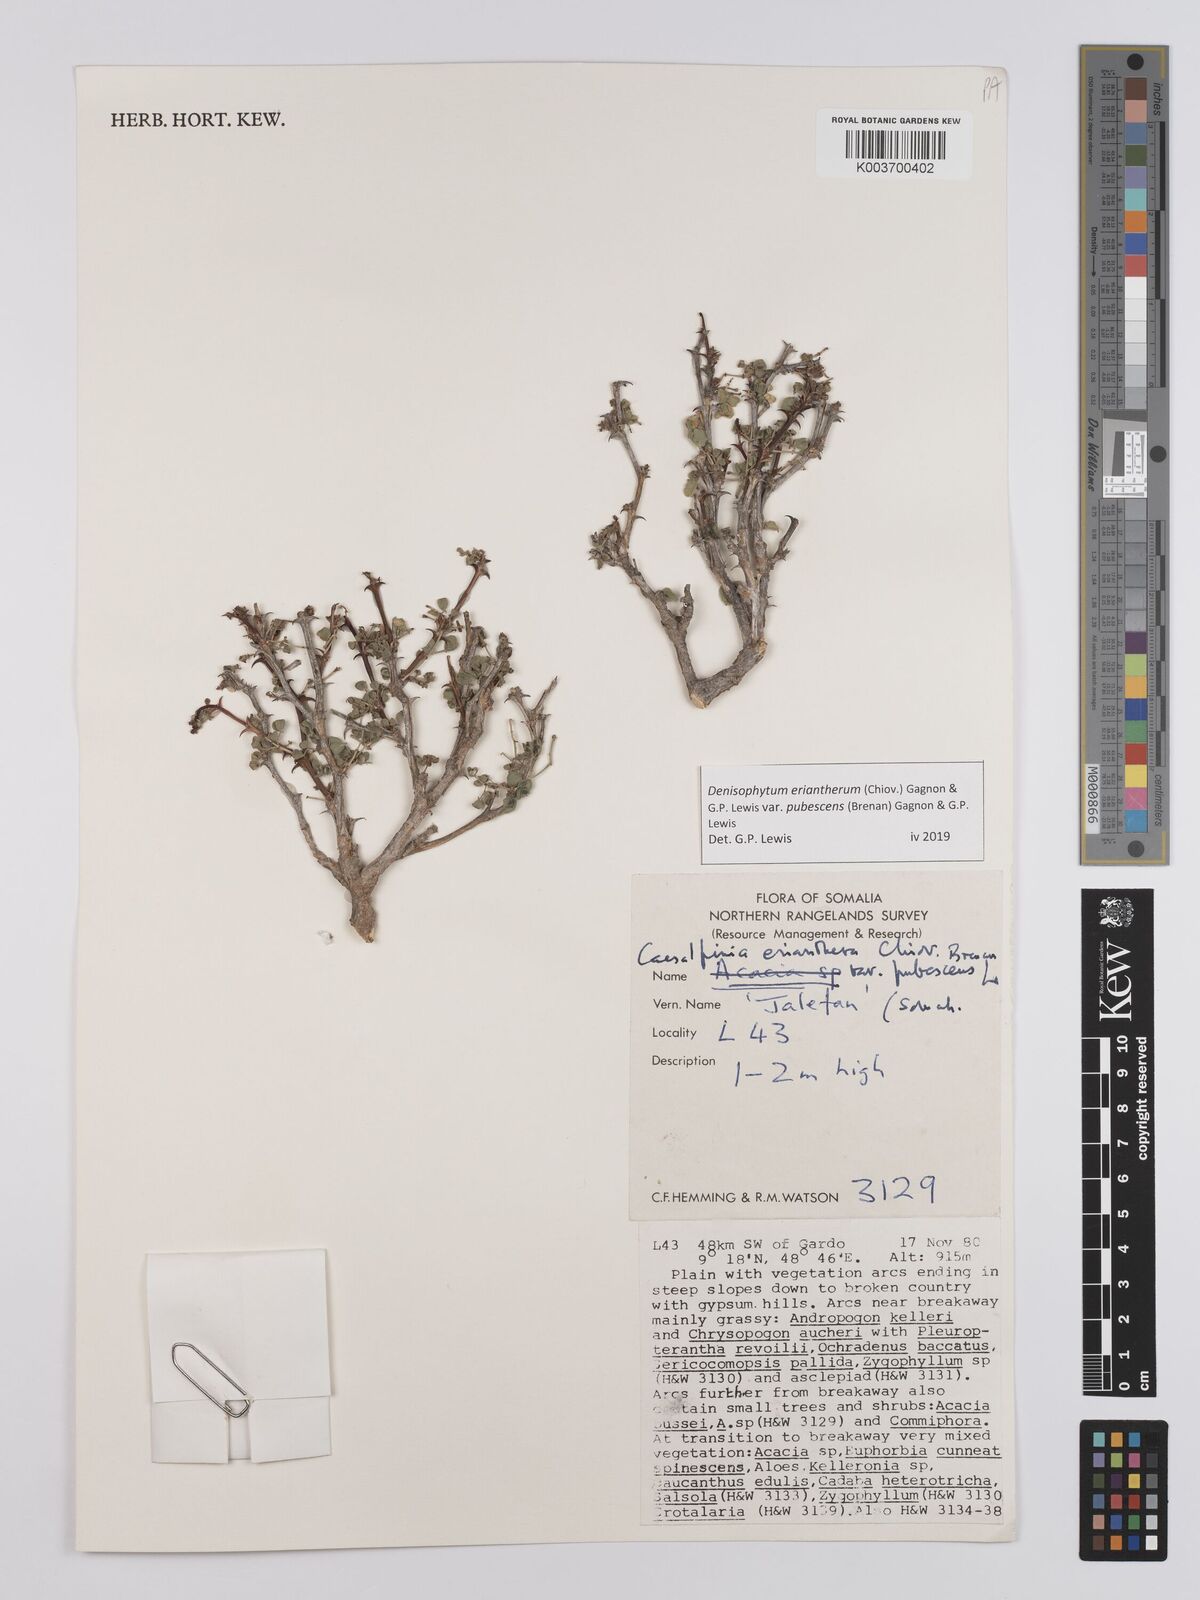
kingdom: Plantae
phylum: Tracheophyta
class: Magnoliopsida
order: Fabales
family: Fabaceae
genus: Denisophytum
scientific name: Denisophytum eriantherum
